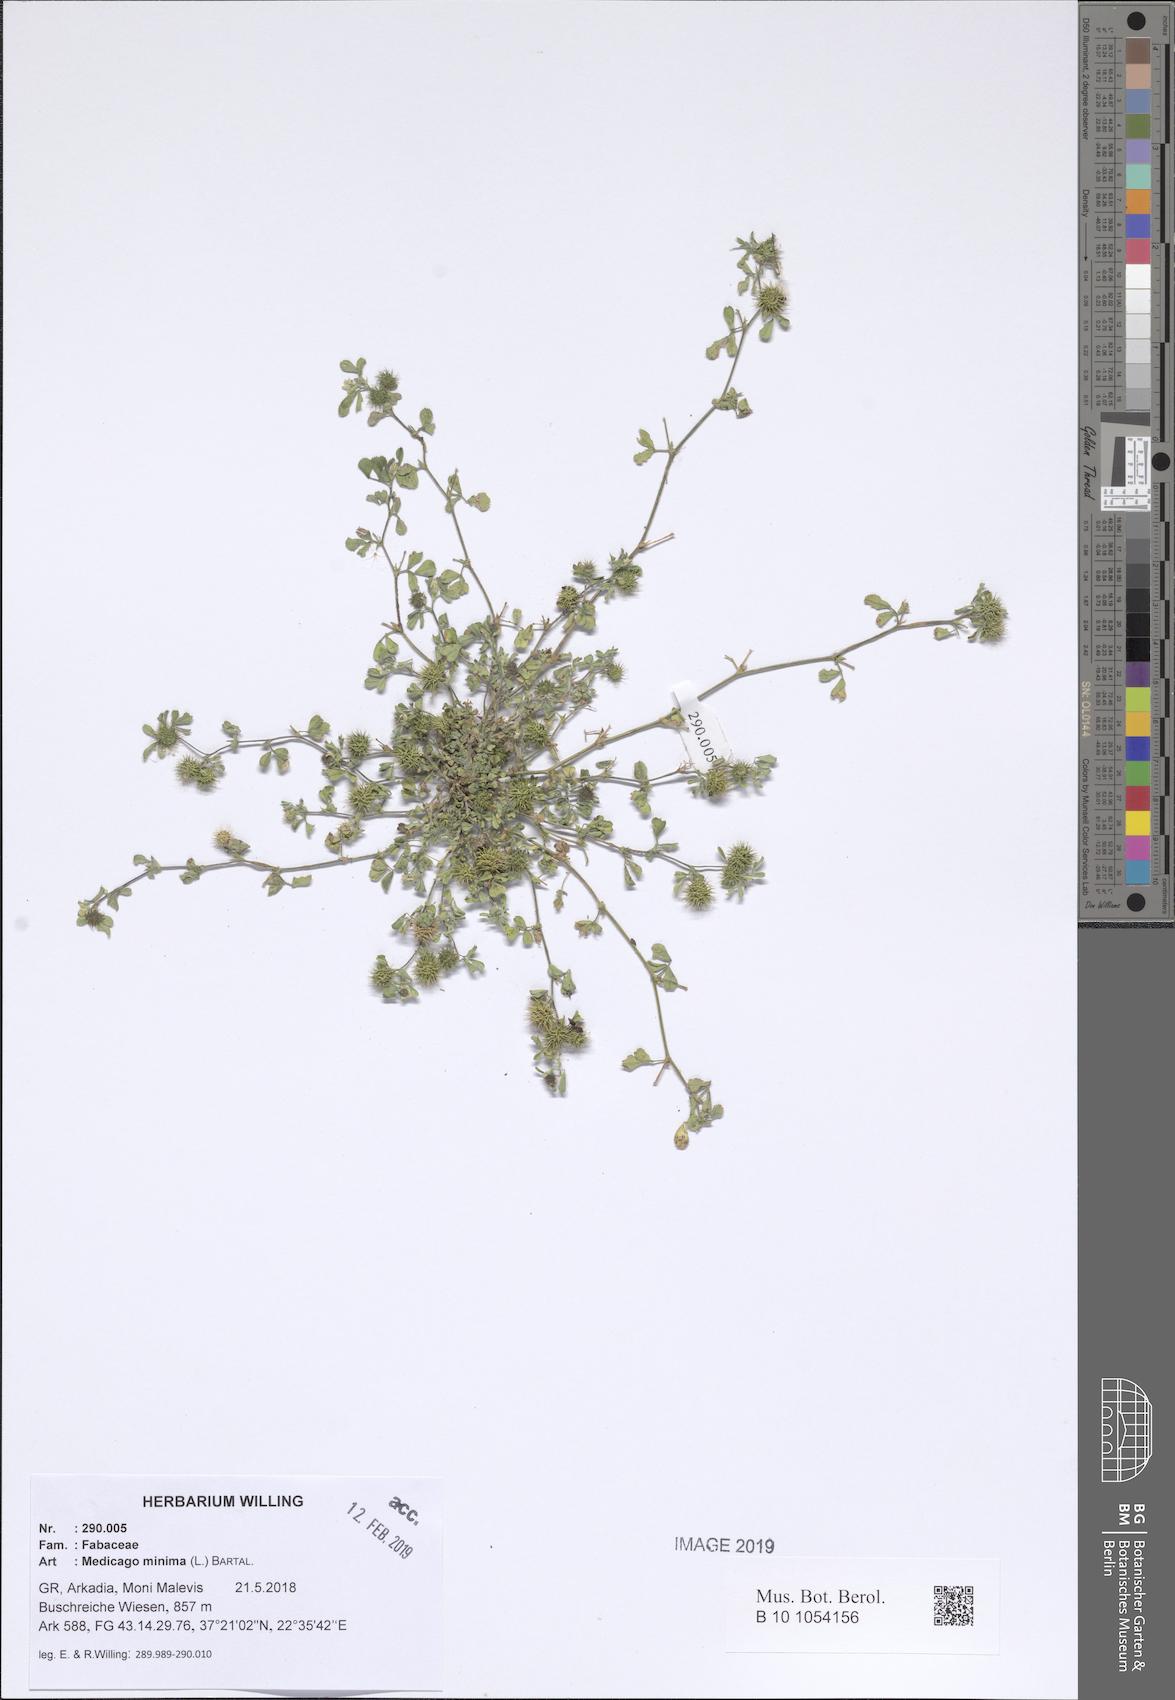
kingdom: Plantae
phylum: Tracheophyta
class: Magnoliopsida
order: Fabales
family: Fabaceae
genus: Medicago
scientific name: Medicago minima
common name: Little bur-clover
